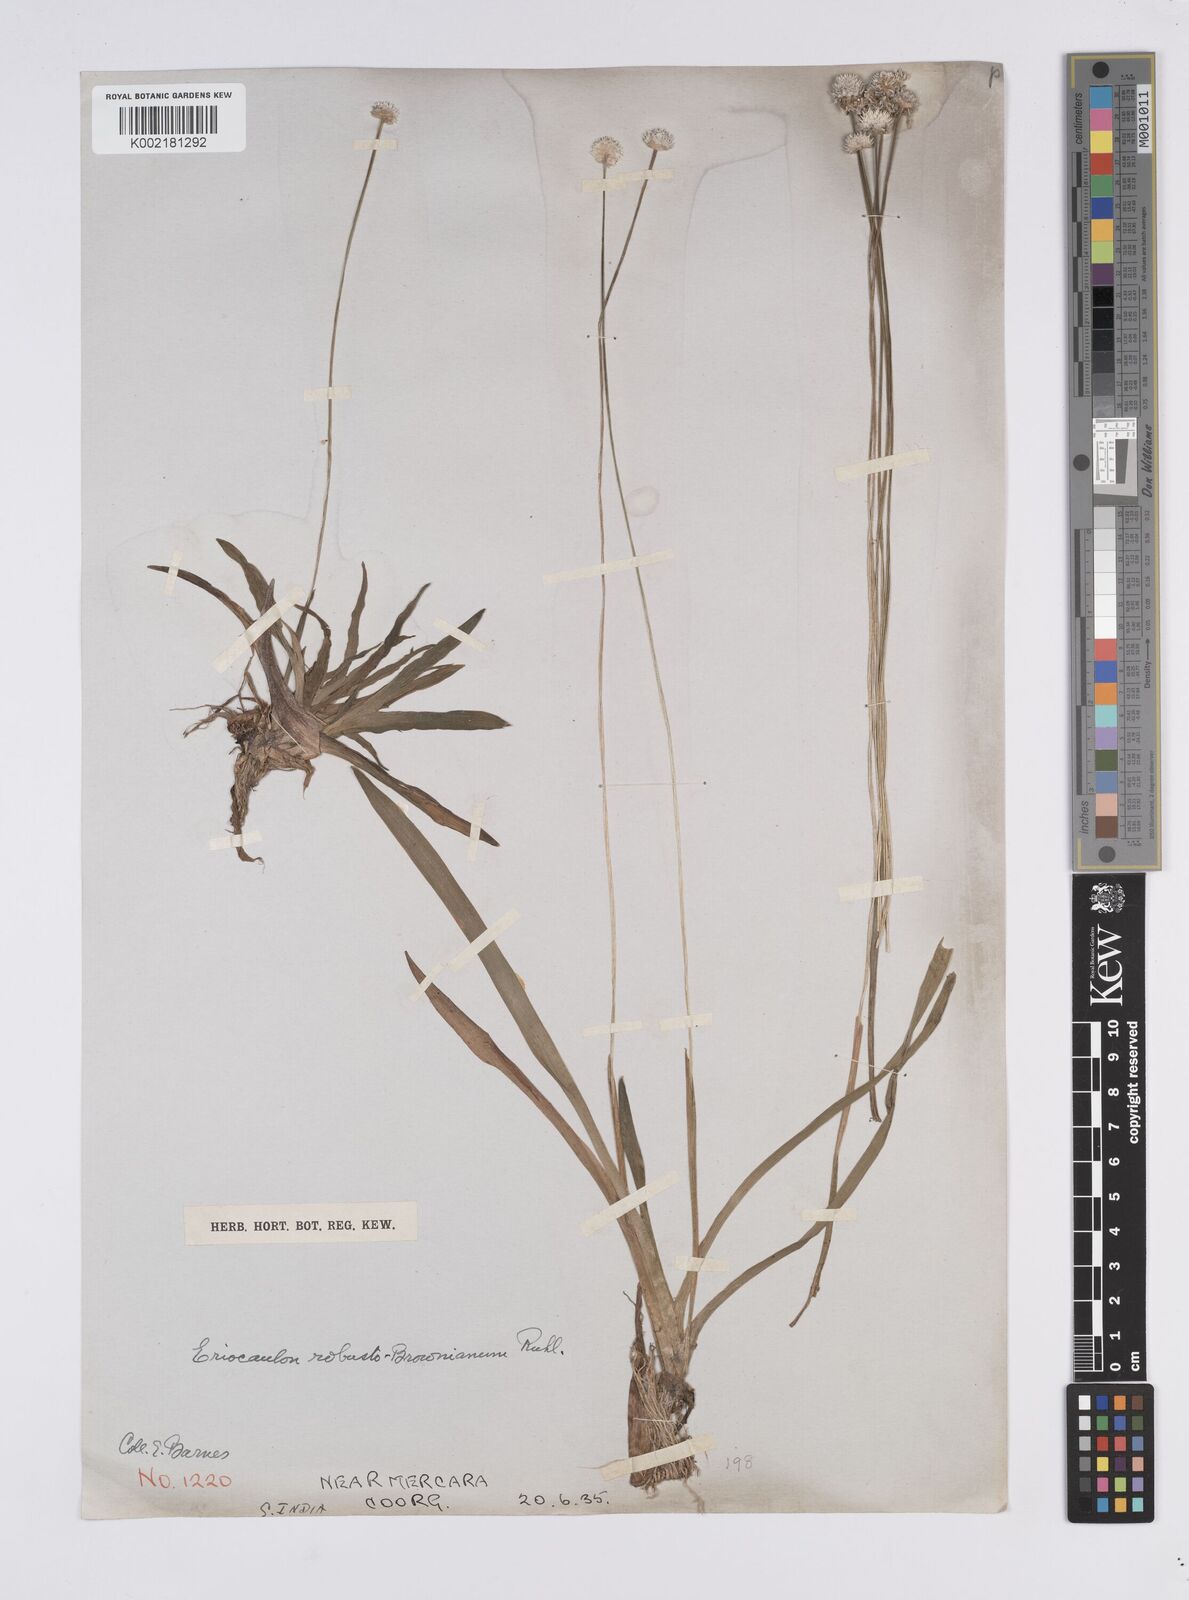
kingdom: Plantae
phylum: Tracheophyta
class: Liliopsida
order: Poales
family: Eriocaulaceae
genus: Eriocaulon
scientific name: Eriocaulon robustobrownianum
